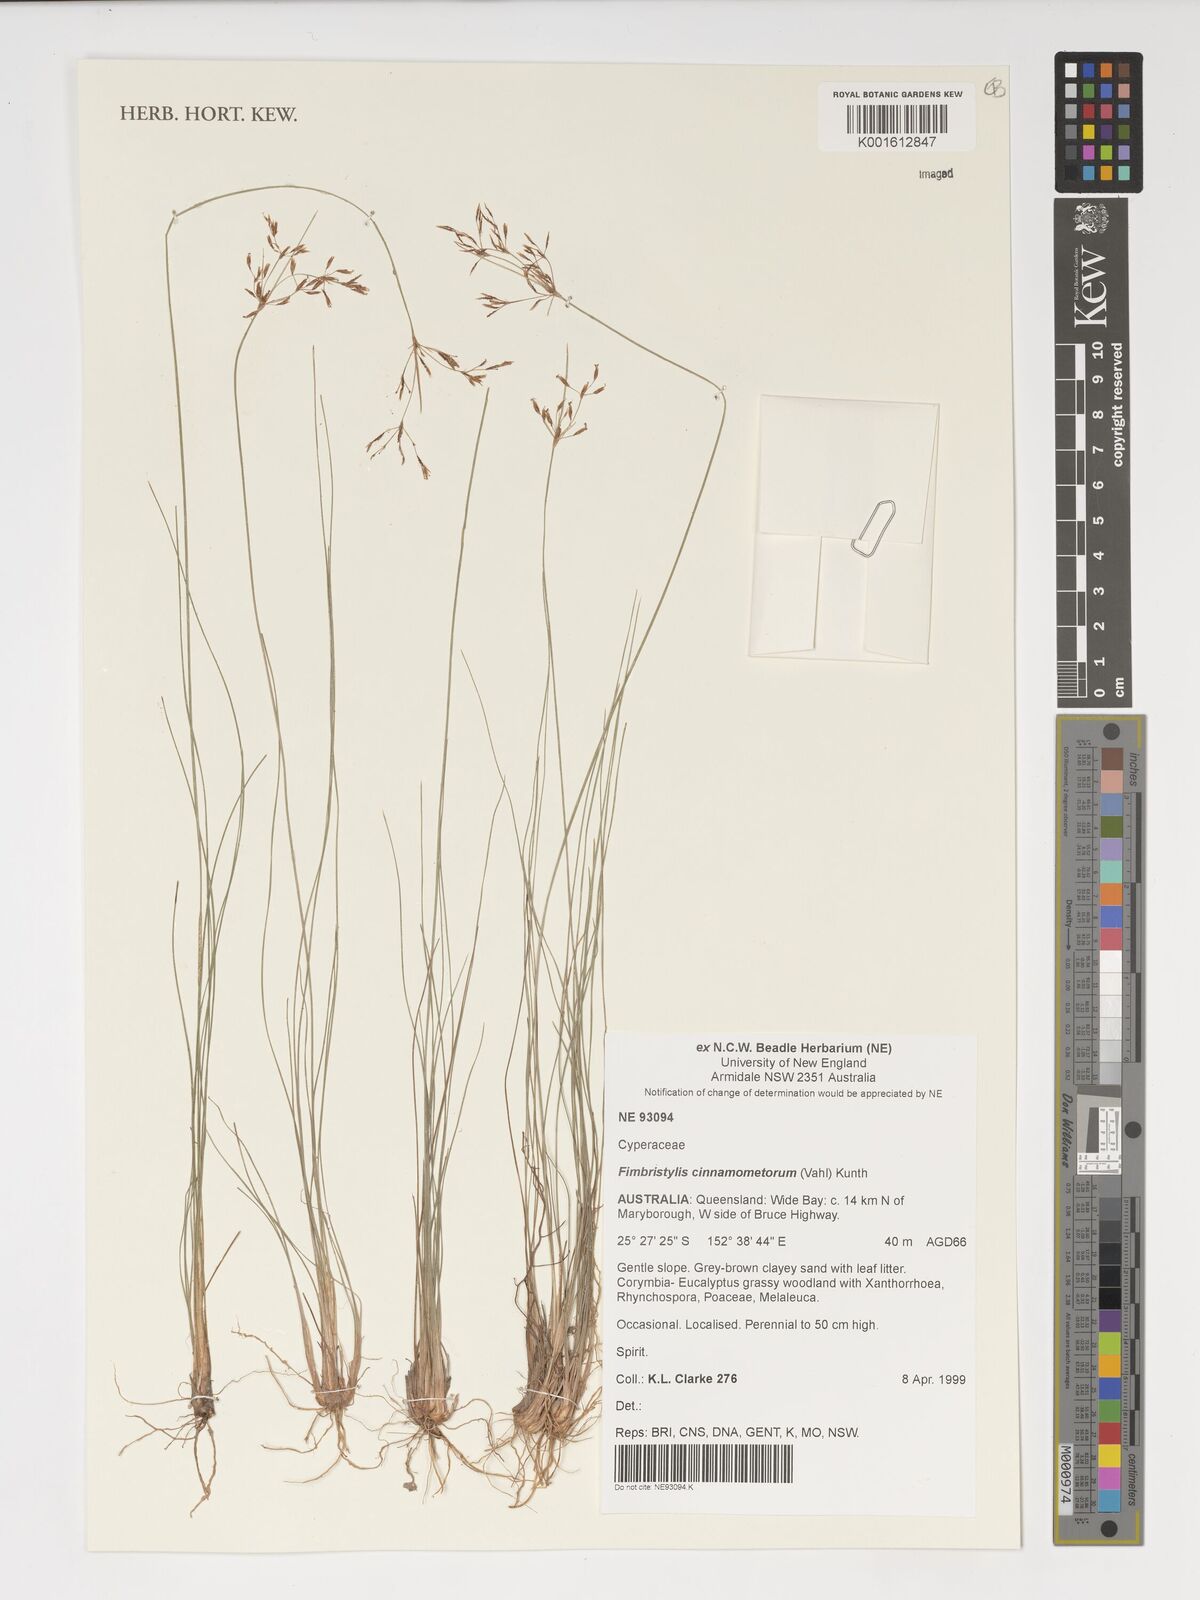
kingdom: Plantae
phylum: Tracheophyta
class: Liliopsida
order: Poales
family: Cyperaceae
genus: Fimbristylis
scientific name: Fimbristylis cinnamometorum
